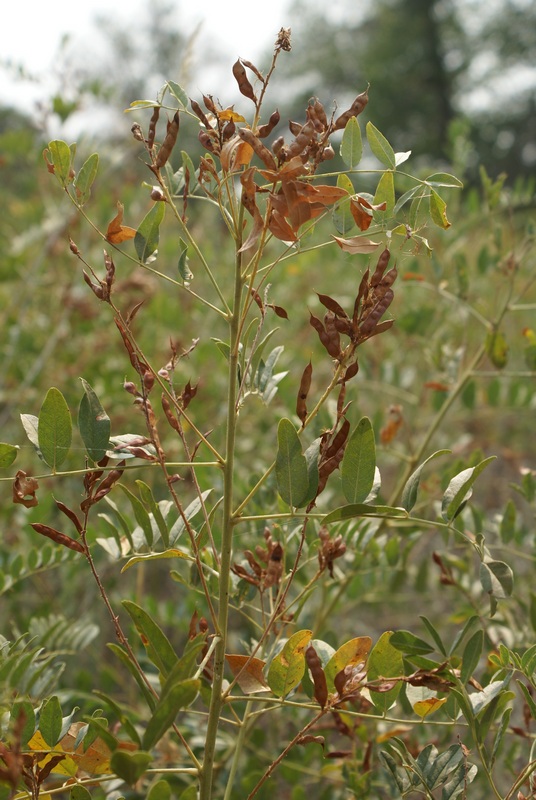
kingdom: Plantae
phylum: Tracheophyta
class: Magnoliopsida
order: Fabales
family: Fabaceae
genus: Glycyrrhiza
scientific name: Glycyrrhiza glabra
